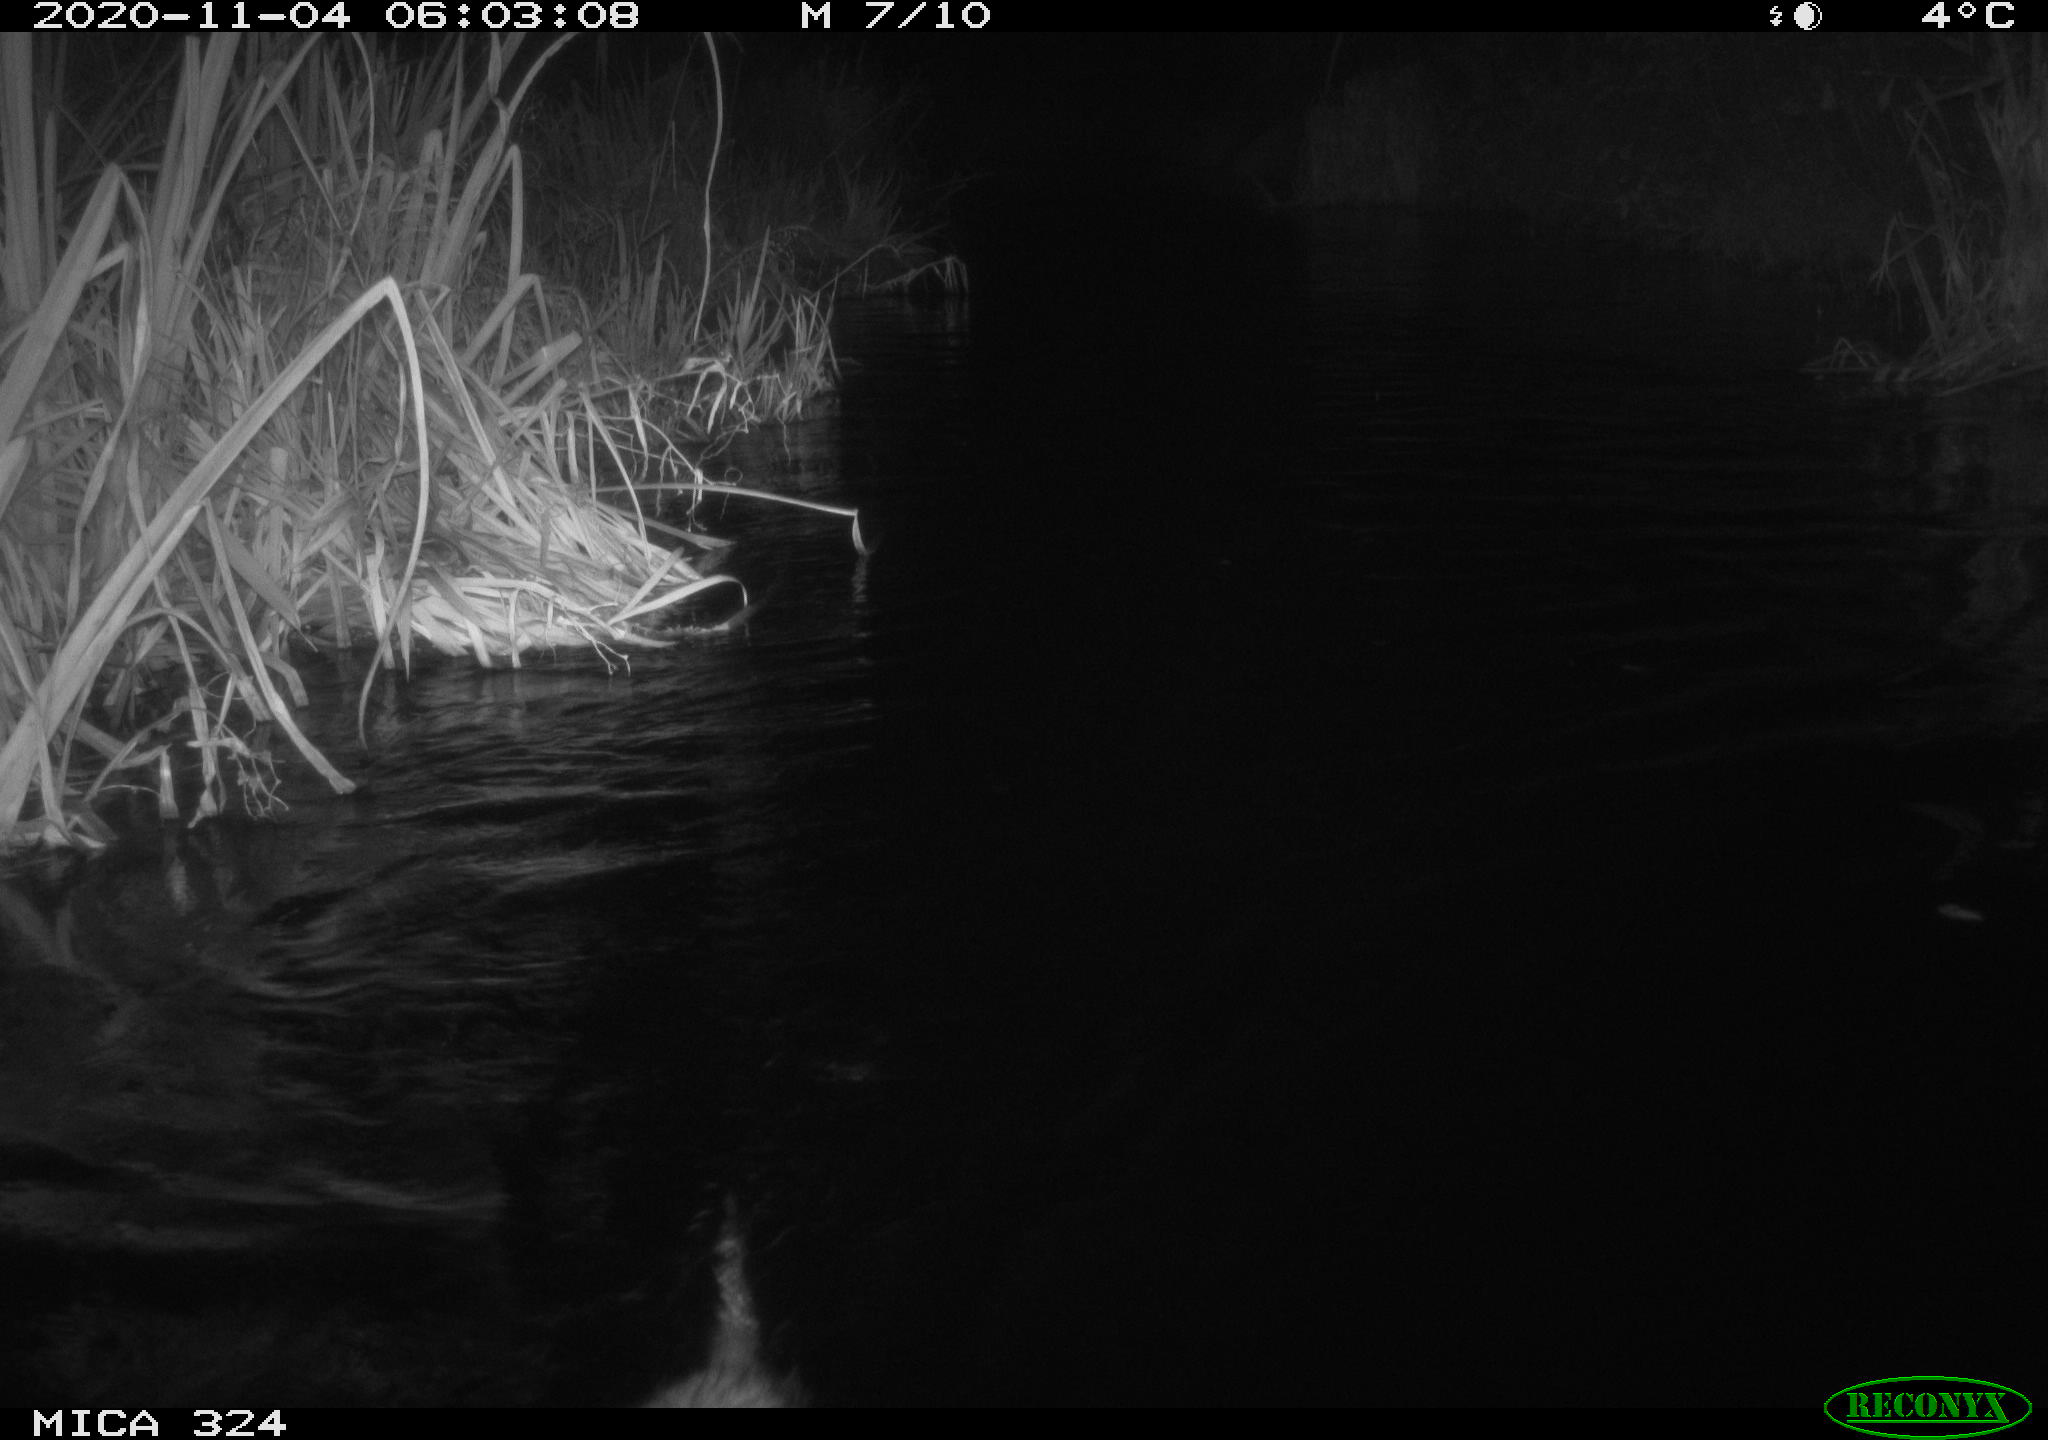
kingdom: Animalia
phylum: Chordata
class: Mammalia
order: Rodentia
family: Myocastoridae
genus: Myocastor
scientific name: Myocastor coypus
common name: Coypu
